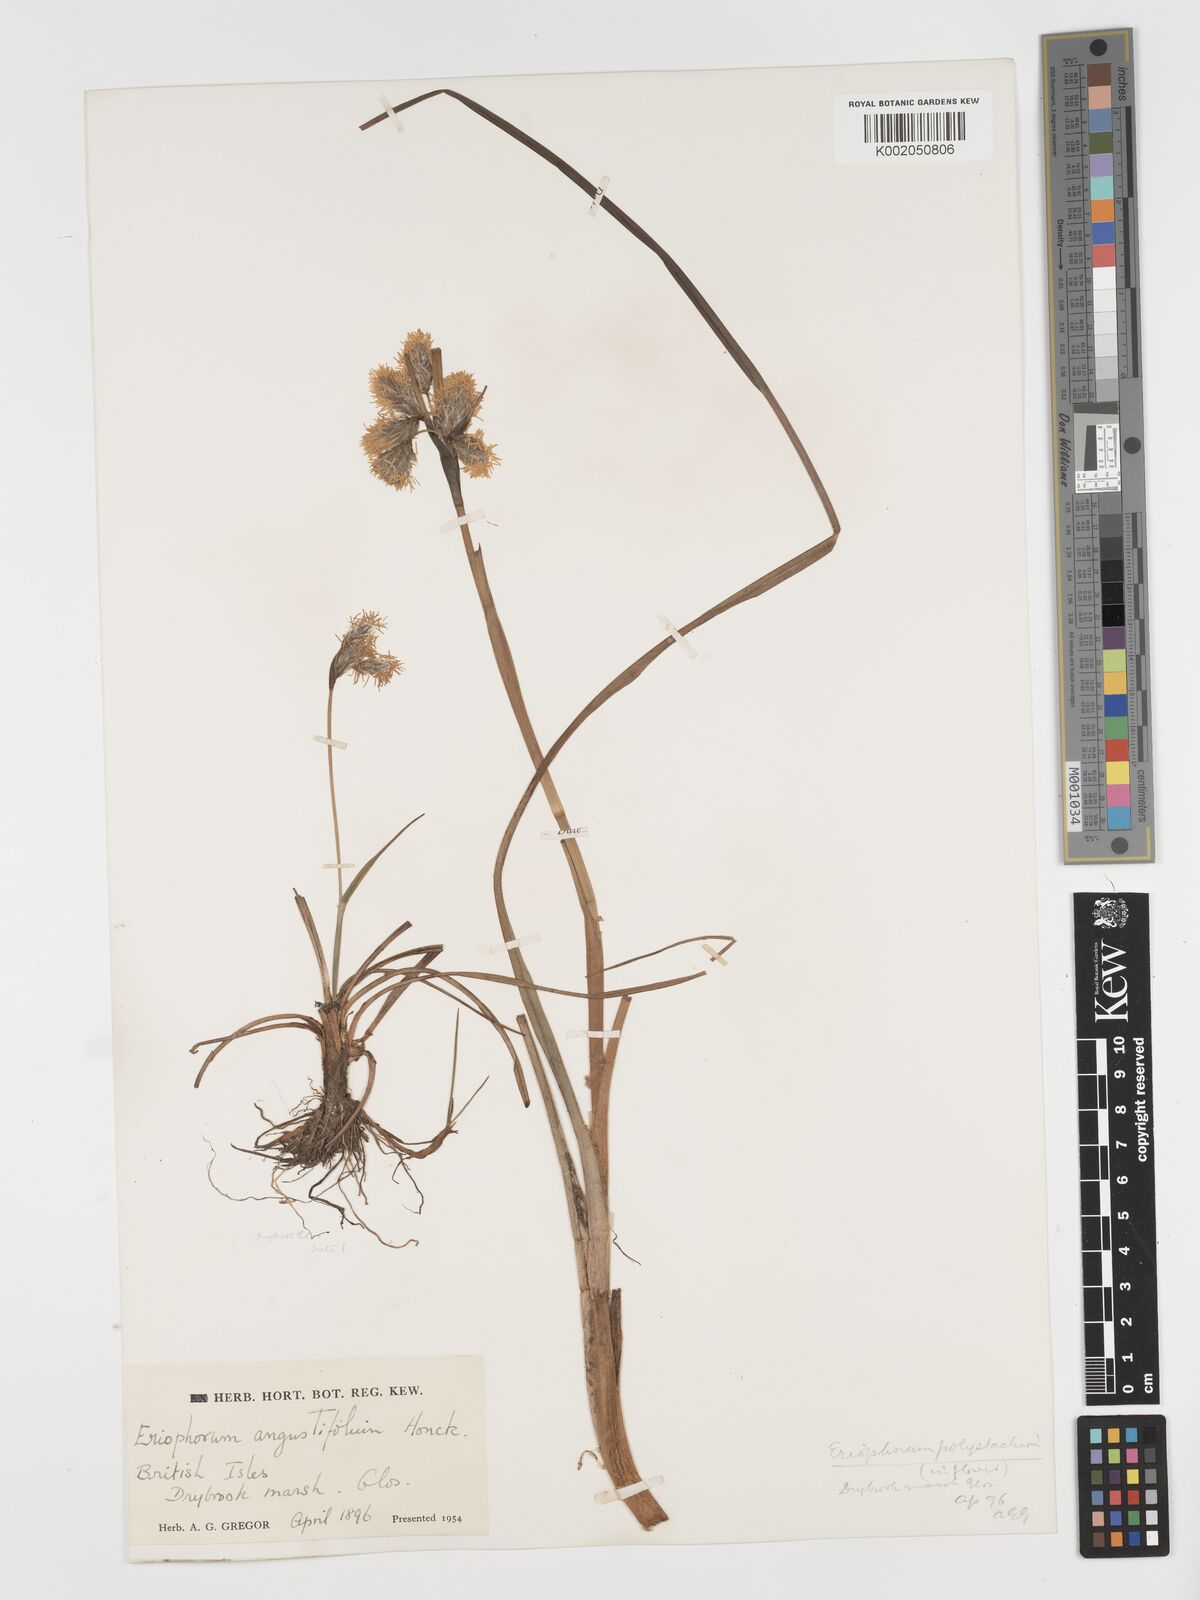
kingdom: Plantae
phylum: Tracheophyta
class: Liliopsida
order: Poales
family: Cyperaceae
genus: Eriophorum
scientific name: Eriophorum angustifolium
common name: Common cottongrass
